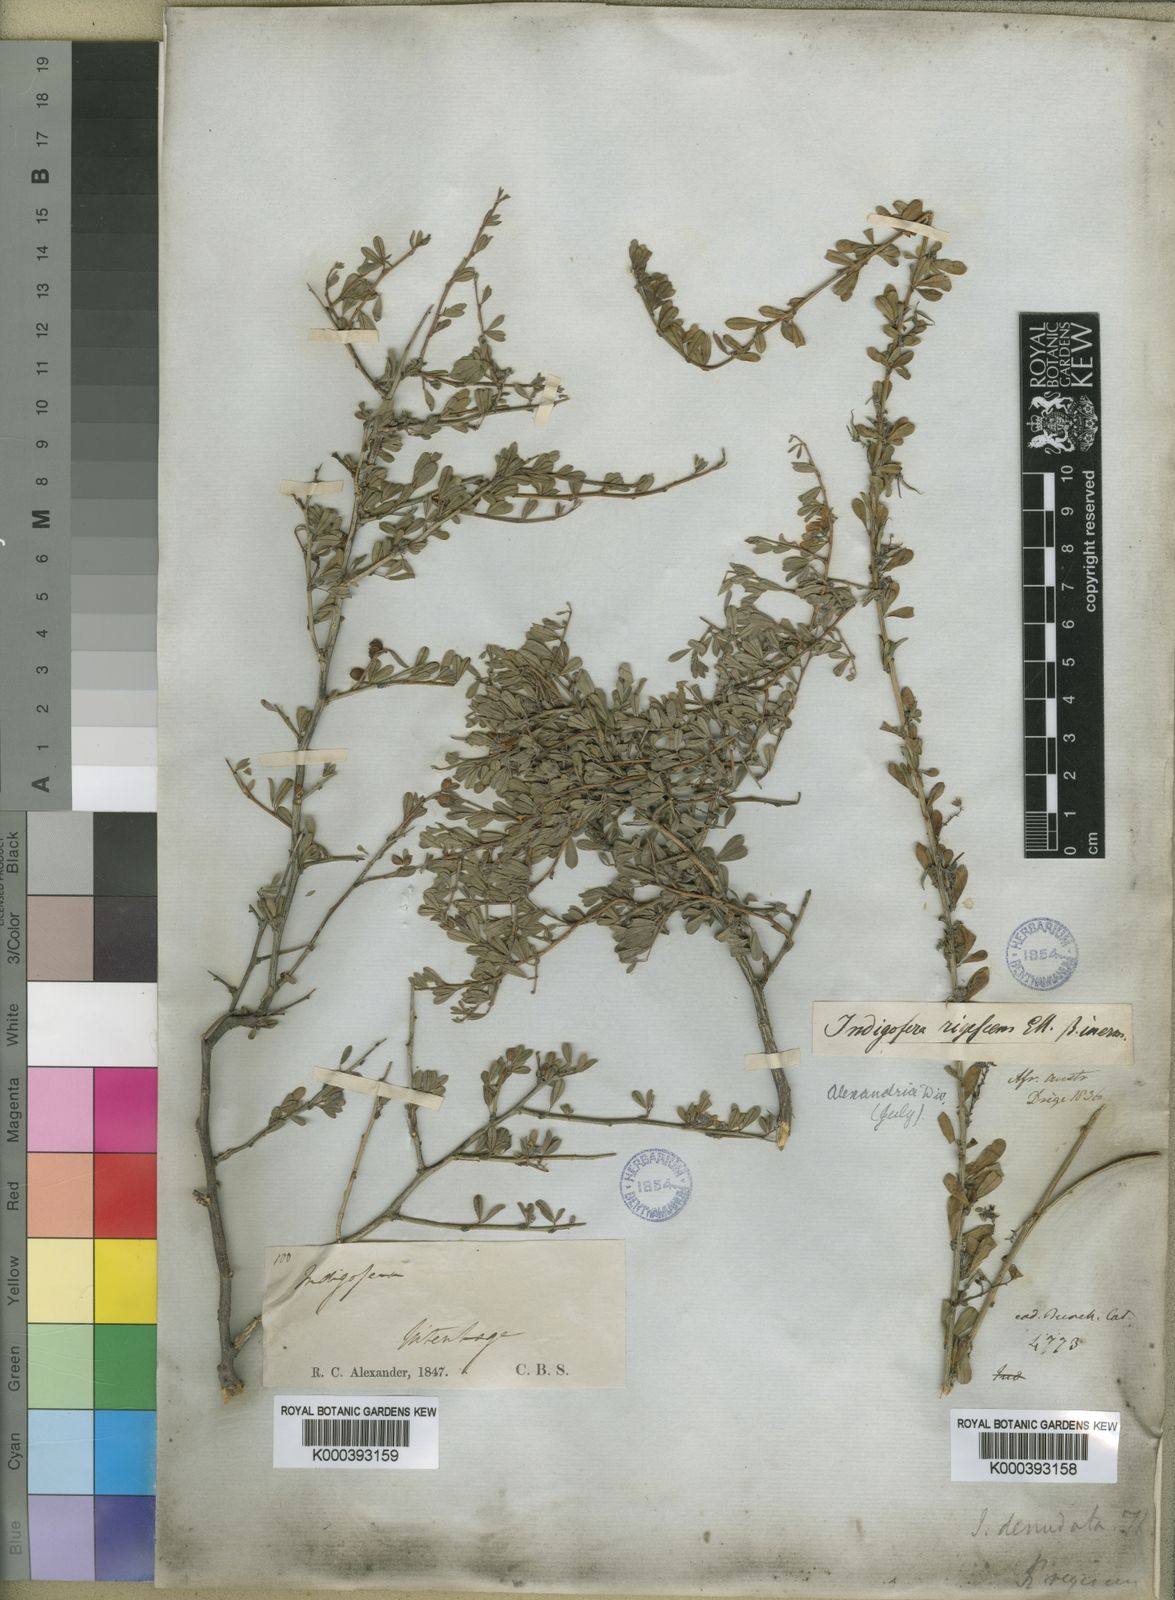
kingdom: Plantae
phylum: Tracheophyta
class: Magnoliopsida
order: Fabales
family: Fabaceae
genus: Indigofera
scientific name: Indigofera
